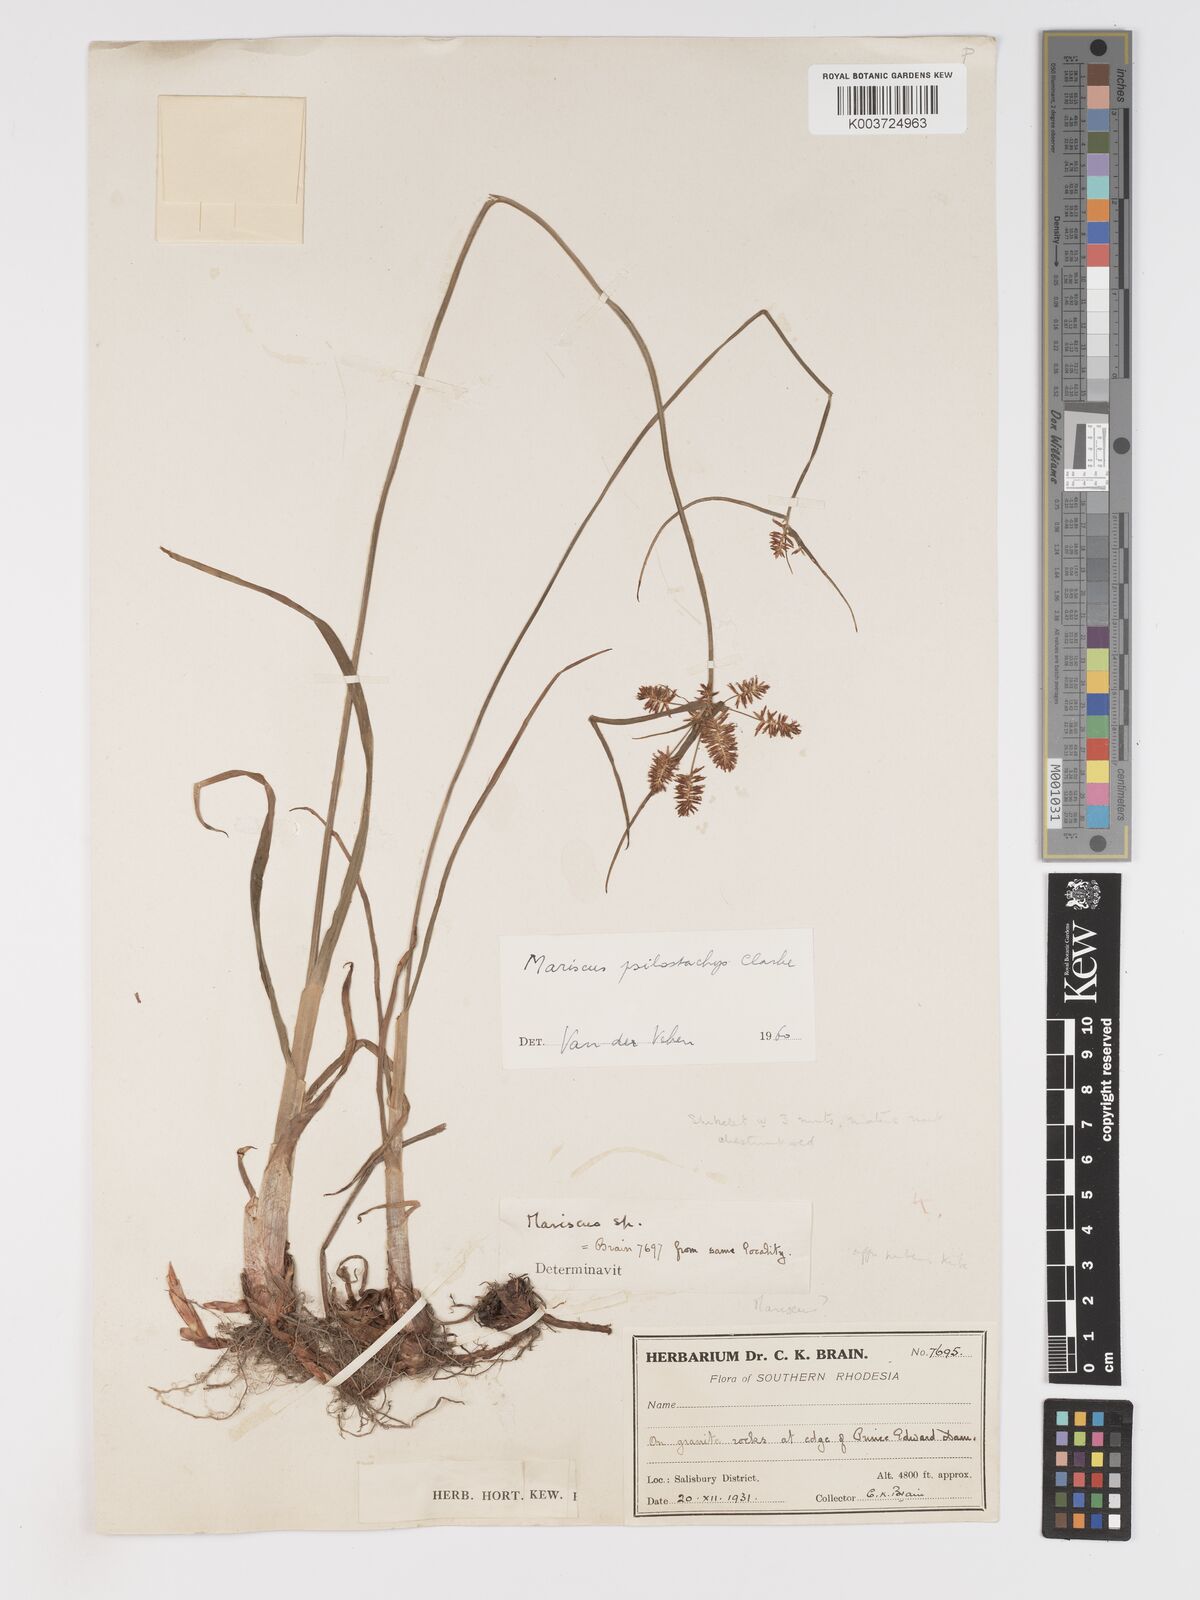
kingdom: Plantae
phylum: Tracheophyta
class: Liliopsida
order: Poales
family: Cyperaceae
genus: Cyperus
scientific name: Cyperus trigonellus
